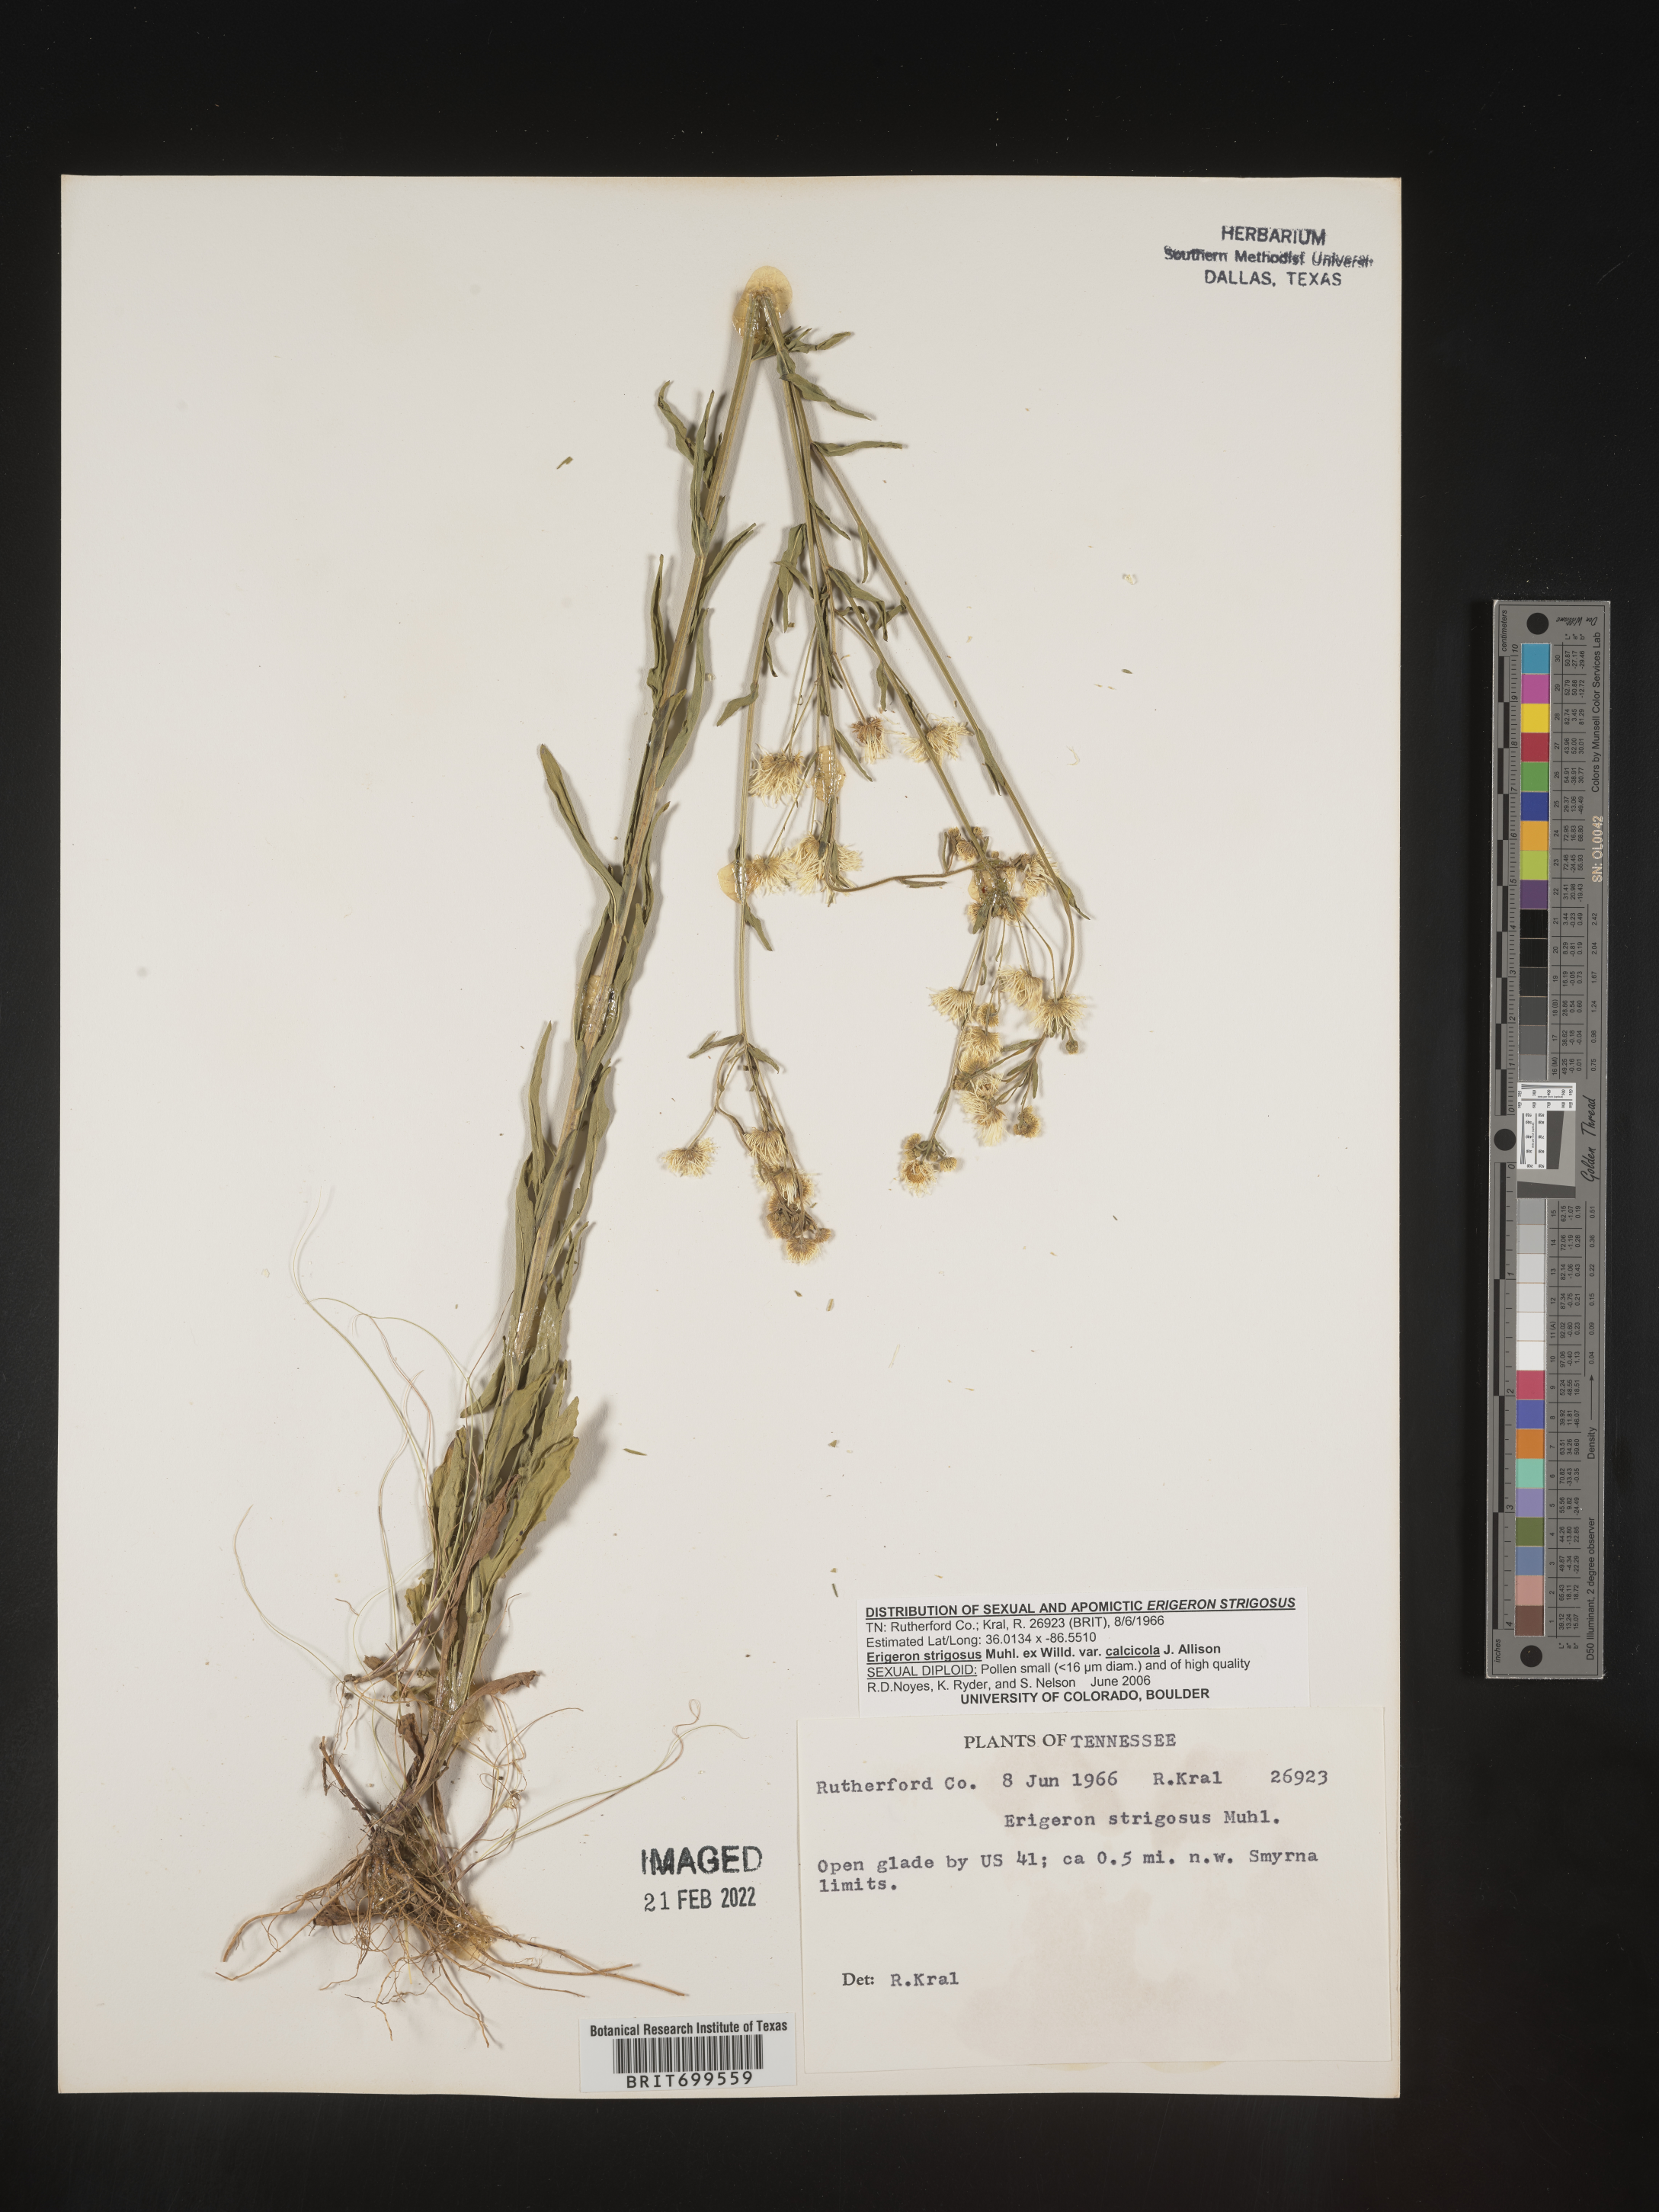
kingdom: Plantae
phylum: Tracheophyta
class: Magnoliopsida
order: Asterales
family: Asteraceae
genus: Erigeron
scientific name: Erigeron strigosus
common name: Common eastern fleabane
